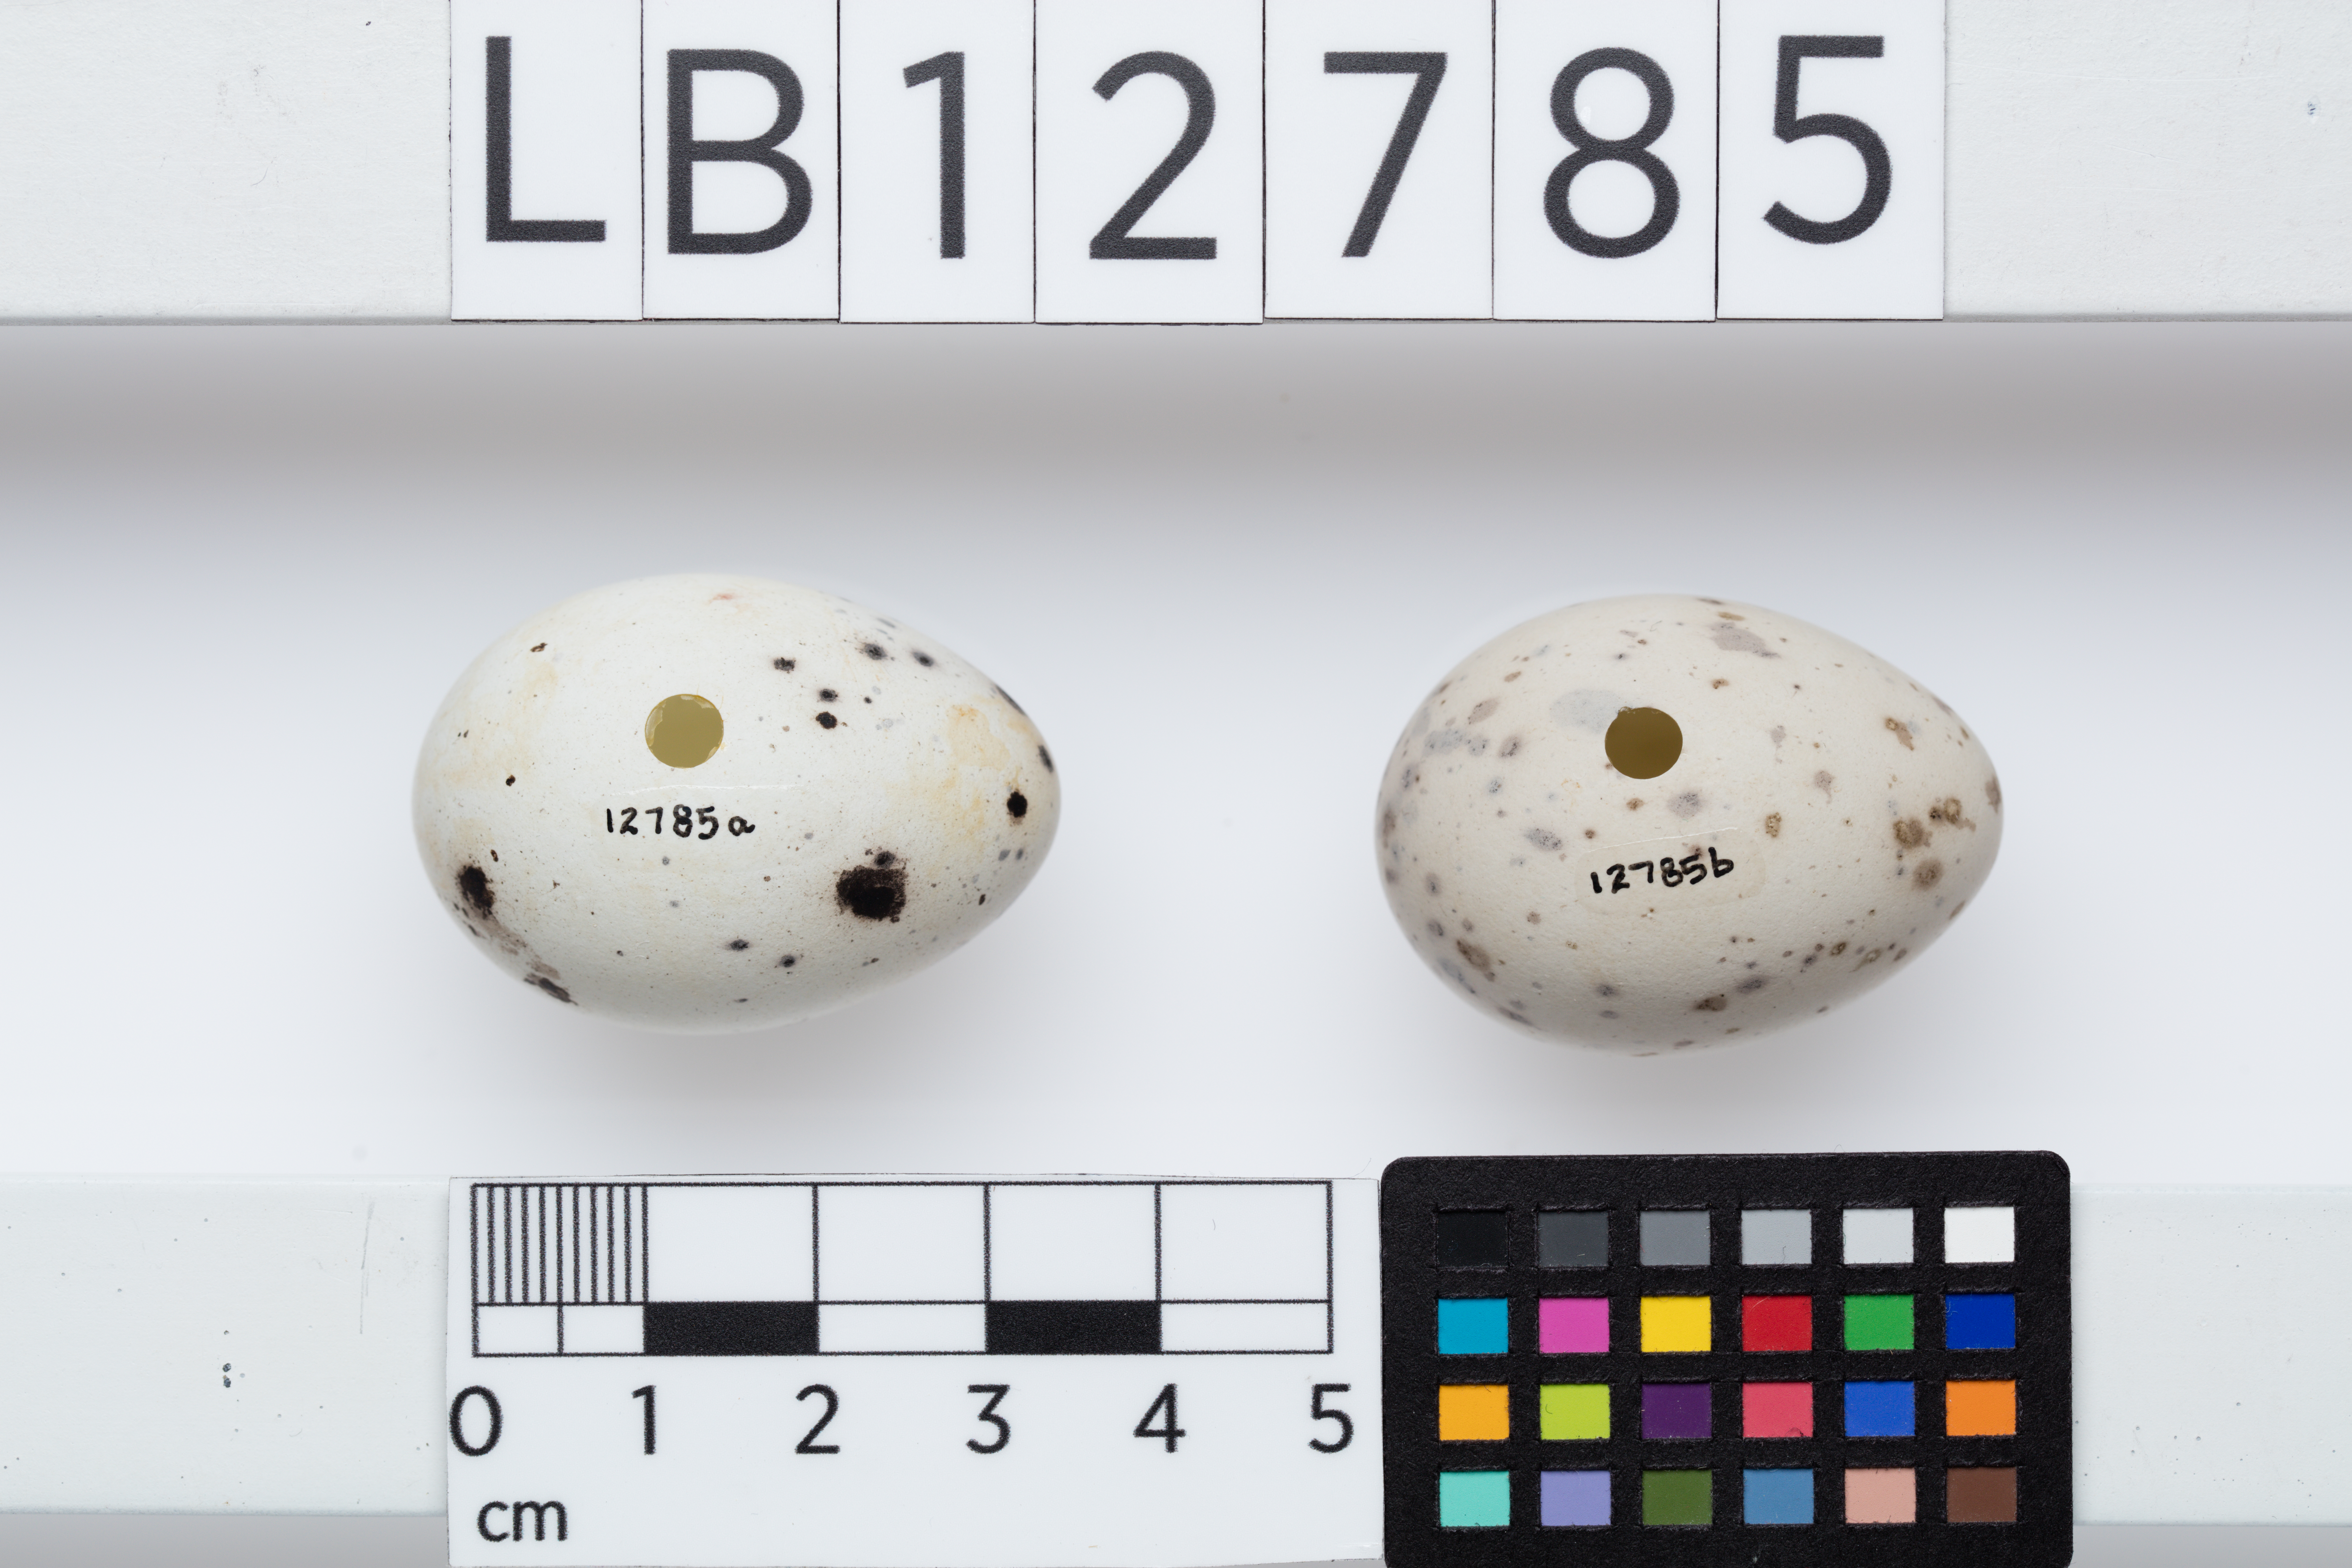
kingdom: Animalia
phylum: Chordata
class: Aves
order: Passeriformes
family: Callaeatidae
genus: Callaeas
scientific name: Callaeas cinereus
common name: South island kokako
